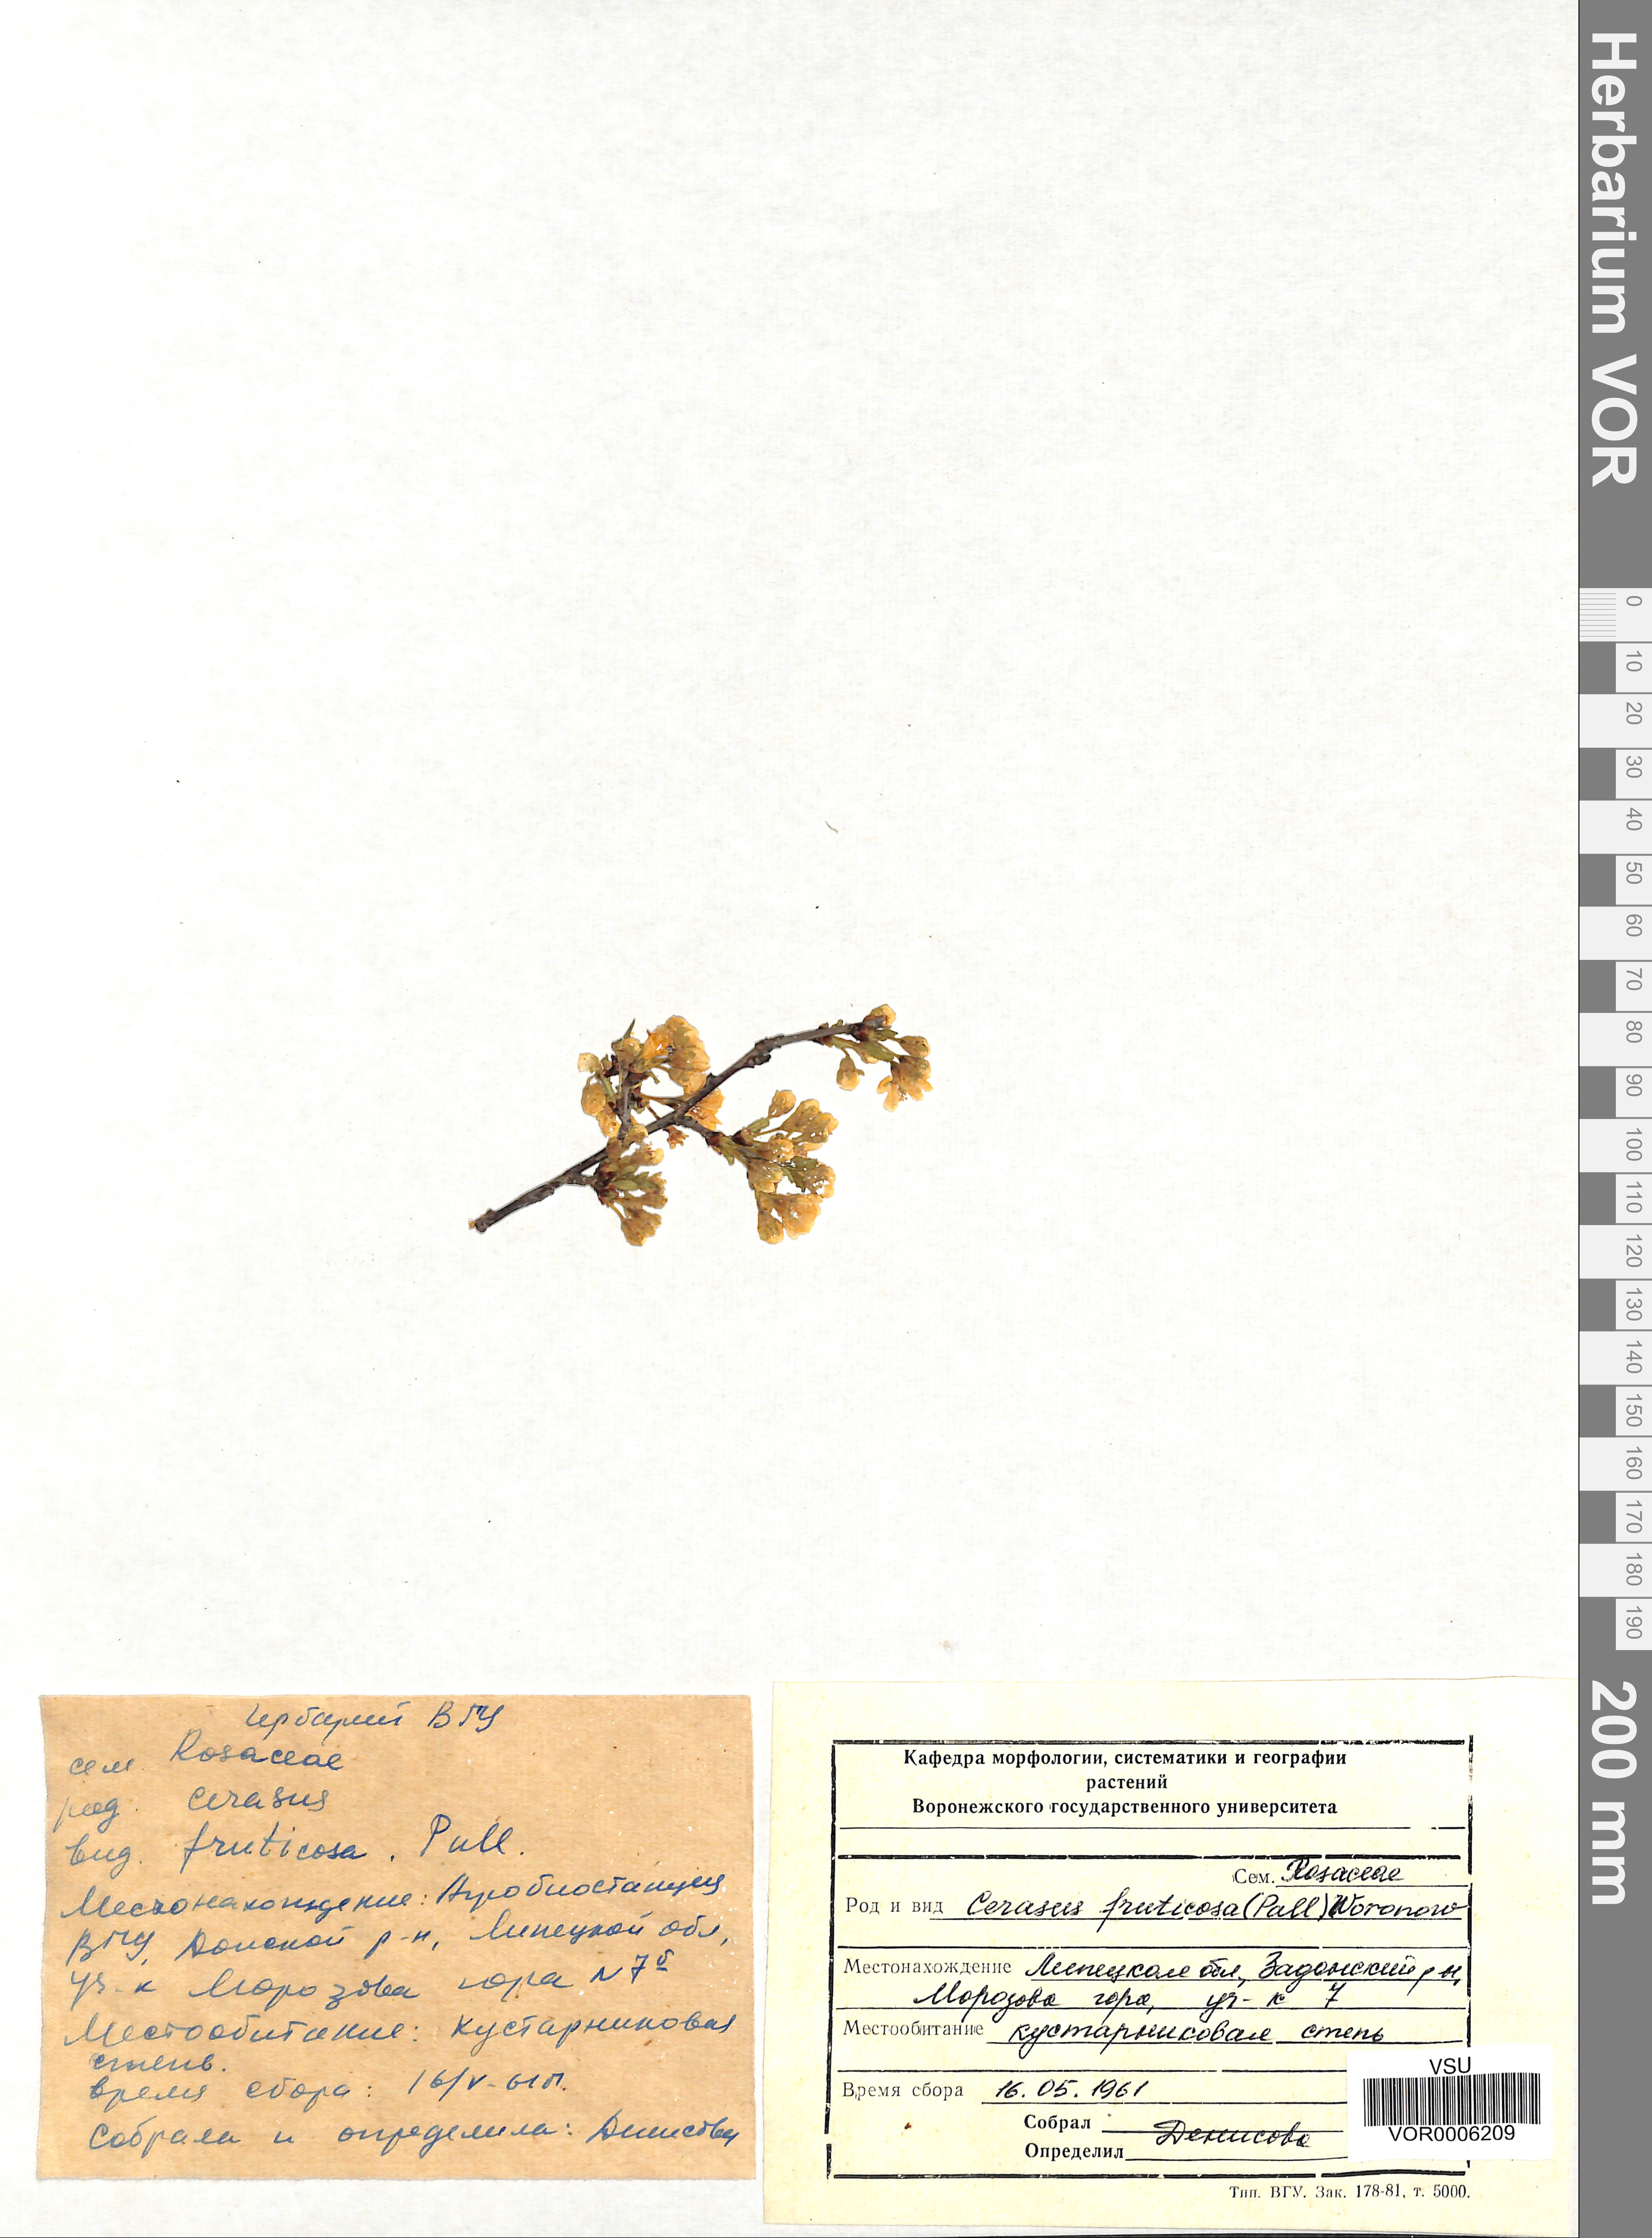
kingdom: Plantae
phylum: Tracheophyta
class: Magnoliopsida
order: Rosales
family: Rosaceae
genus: Prunus
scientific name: Prunus fruticosa
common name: European dwarf cherry
